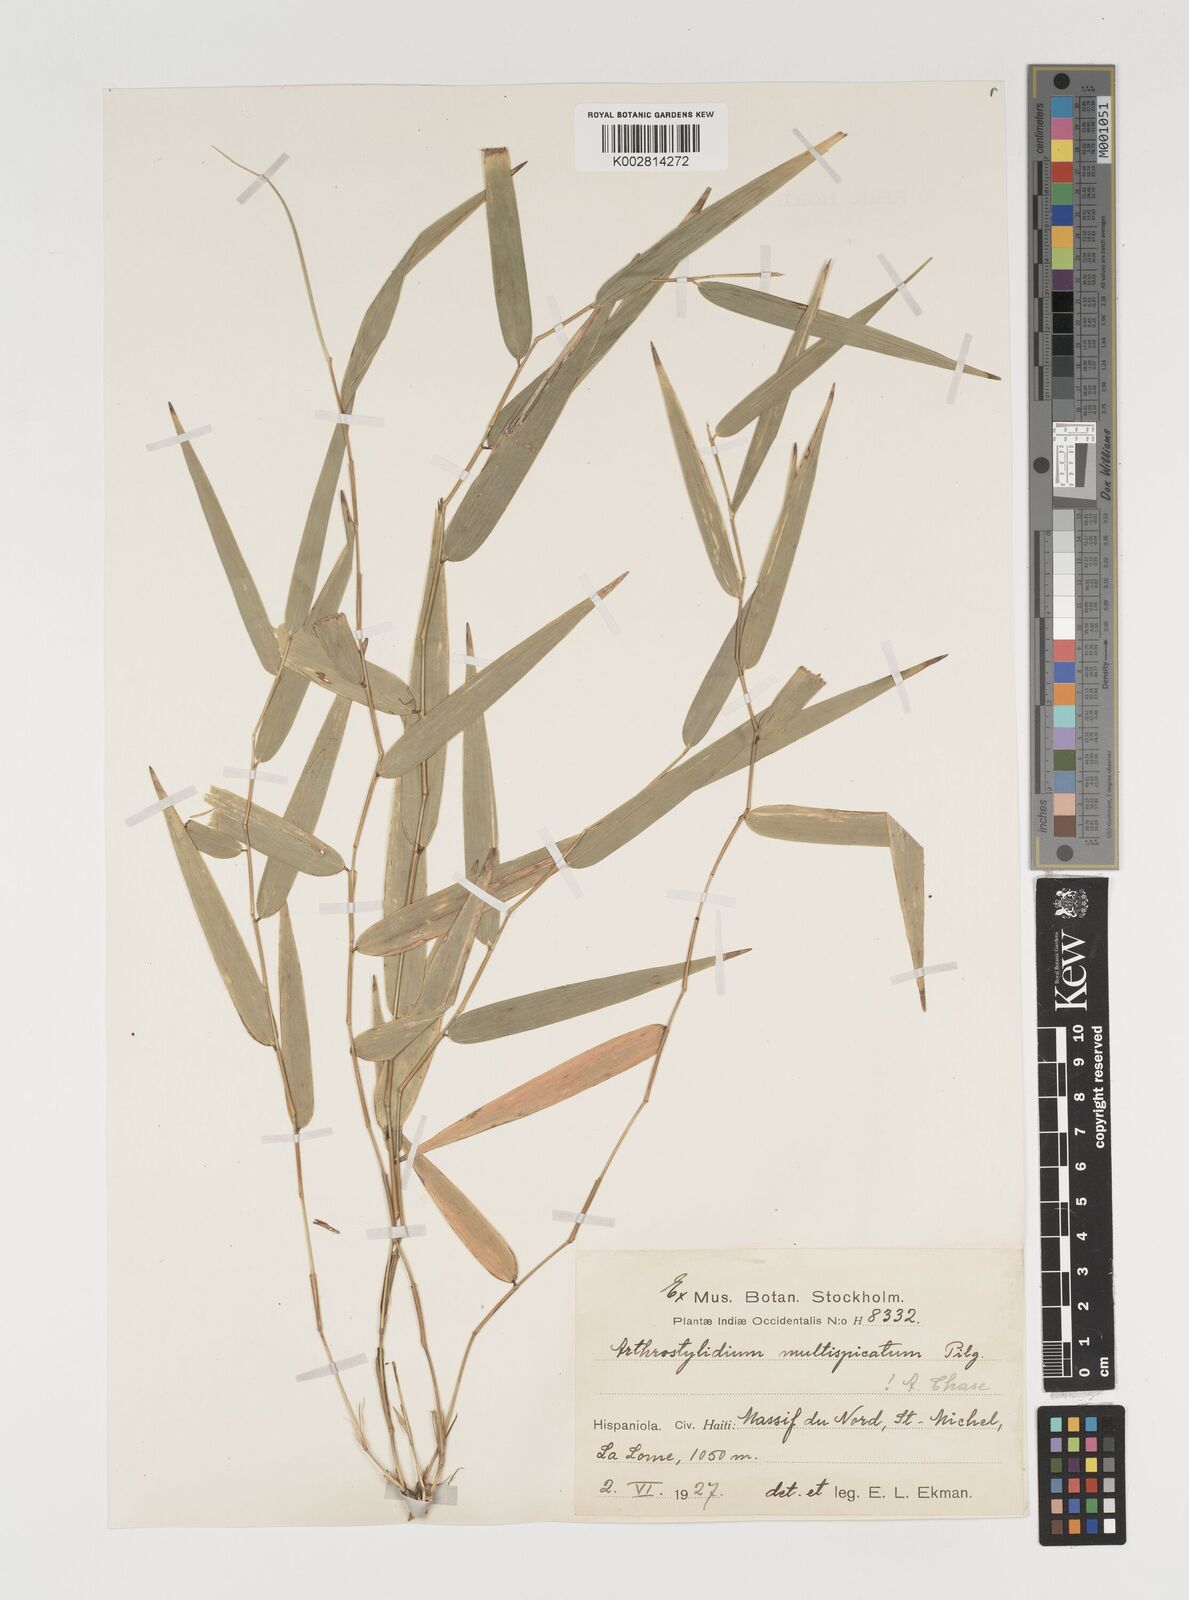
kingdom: Plantae
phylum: Tracheophyta
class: Liliopsida
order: Poales
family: Poaceae
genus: Arthrostylidium
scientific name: Arthrostylidium multispicatum
